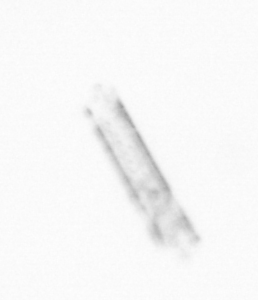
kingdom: Chromista
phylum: Ochrophyta
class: Bacillariophyceae
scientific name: Bacillariophyceae
